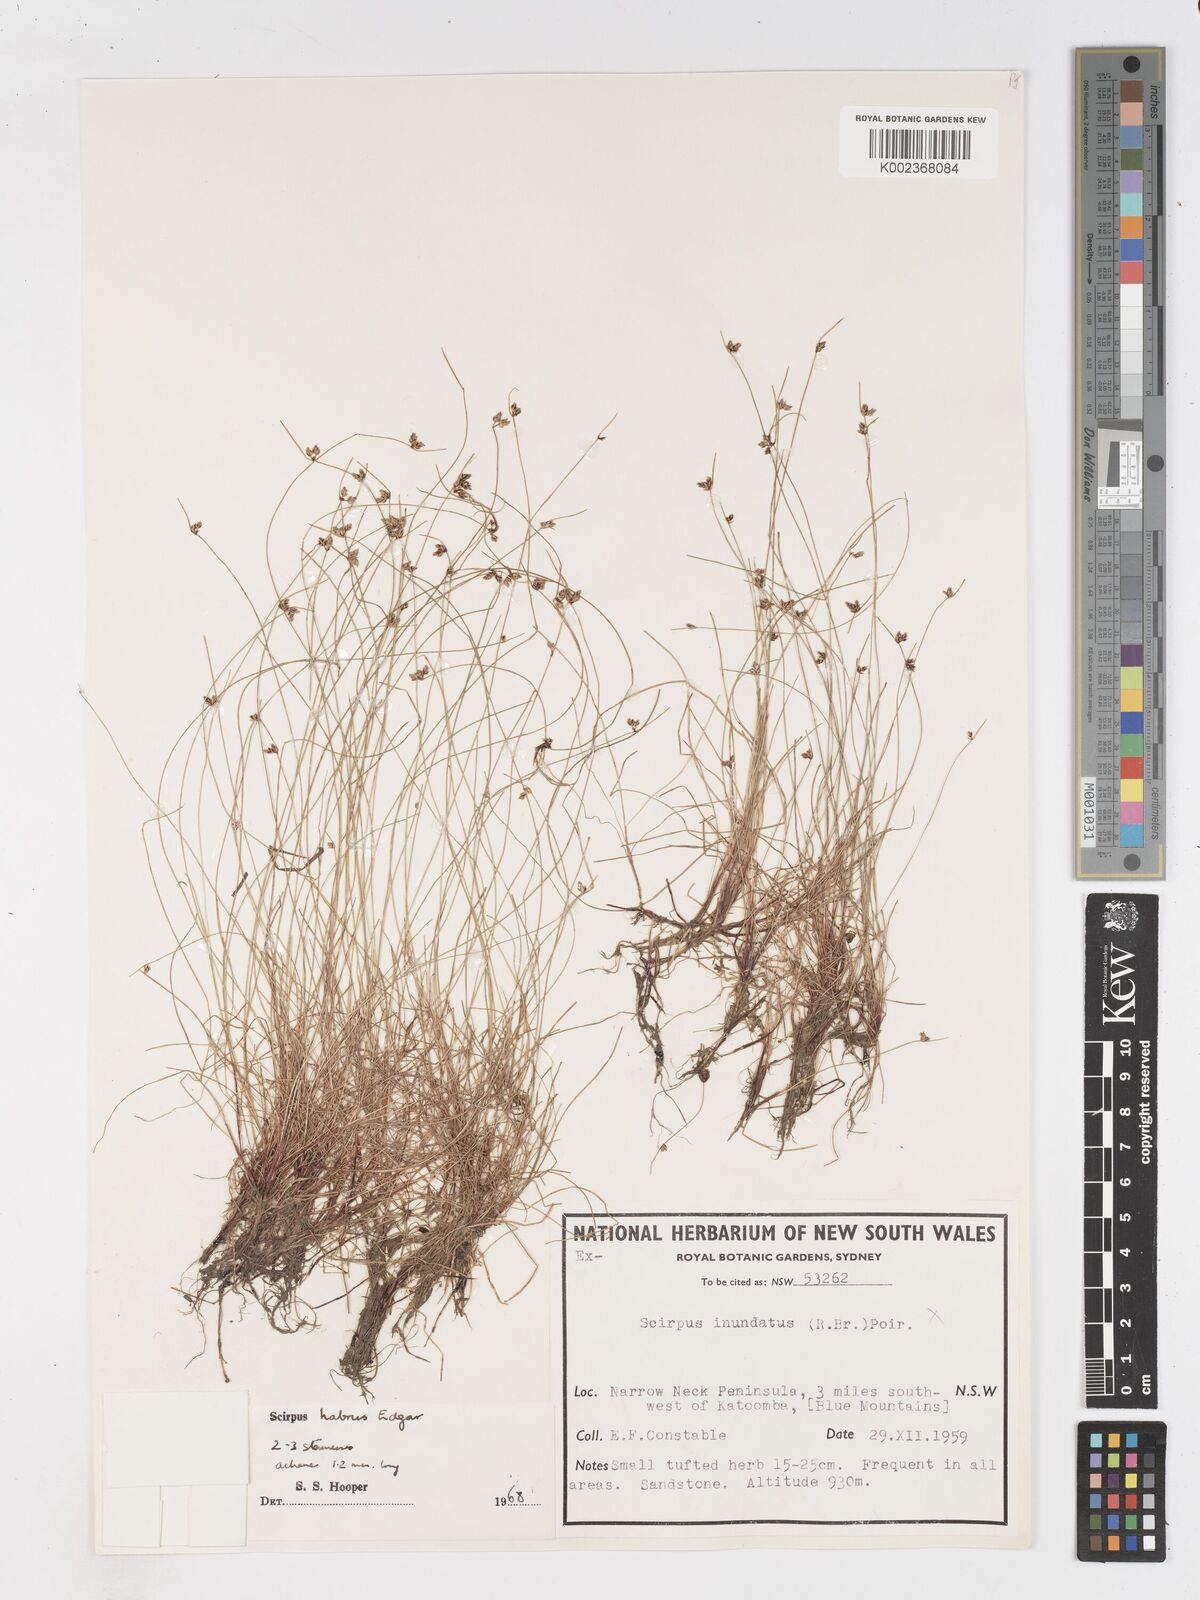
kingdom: Plantae
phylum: Tracheophyta
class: Liliopsida
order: Poales
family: Cyperaceae
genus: Isolepis
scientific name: Isolepis habra
